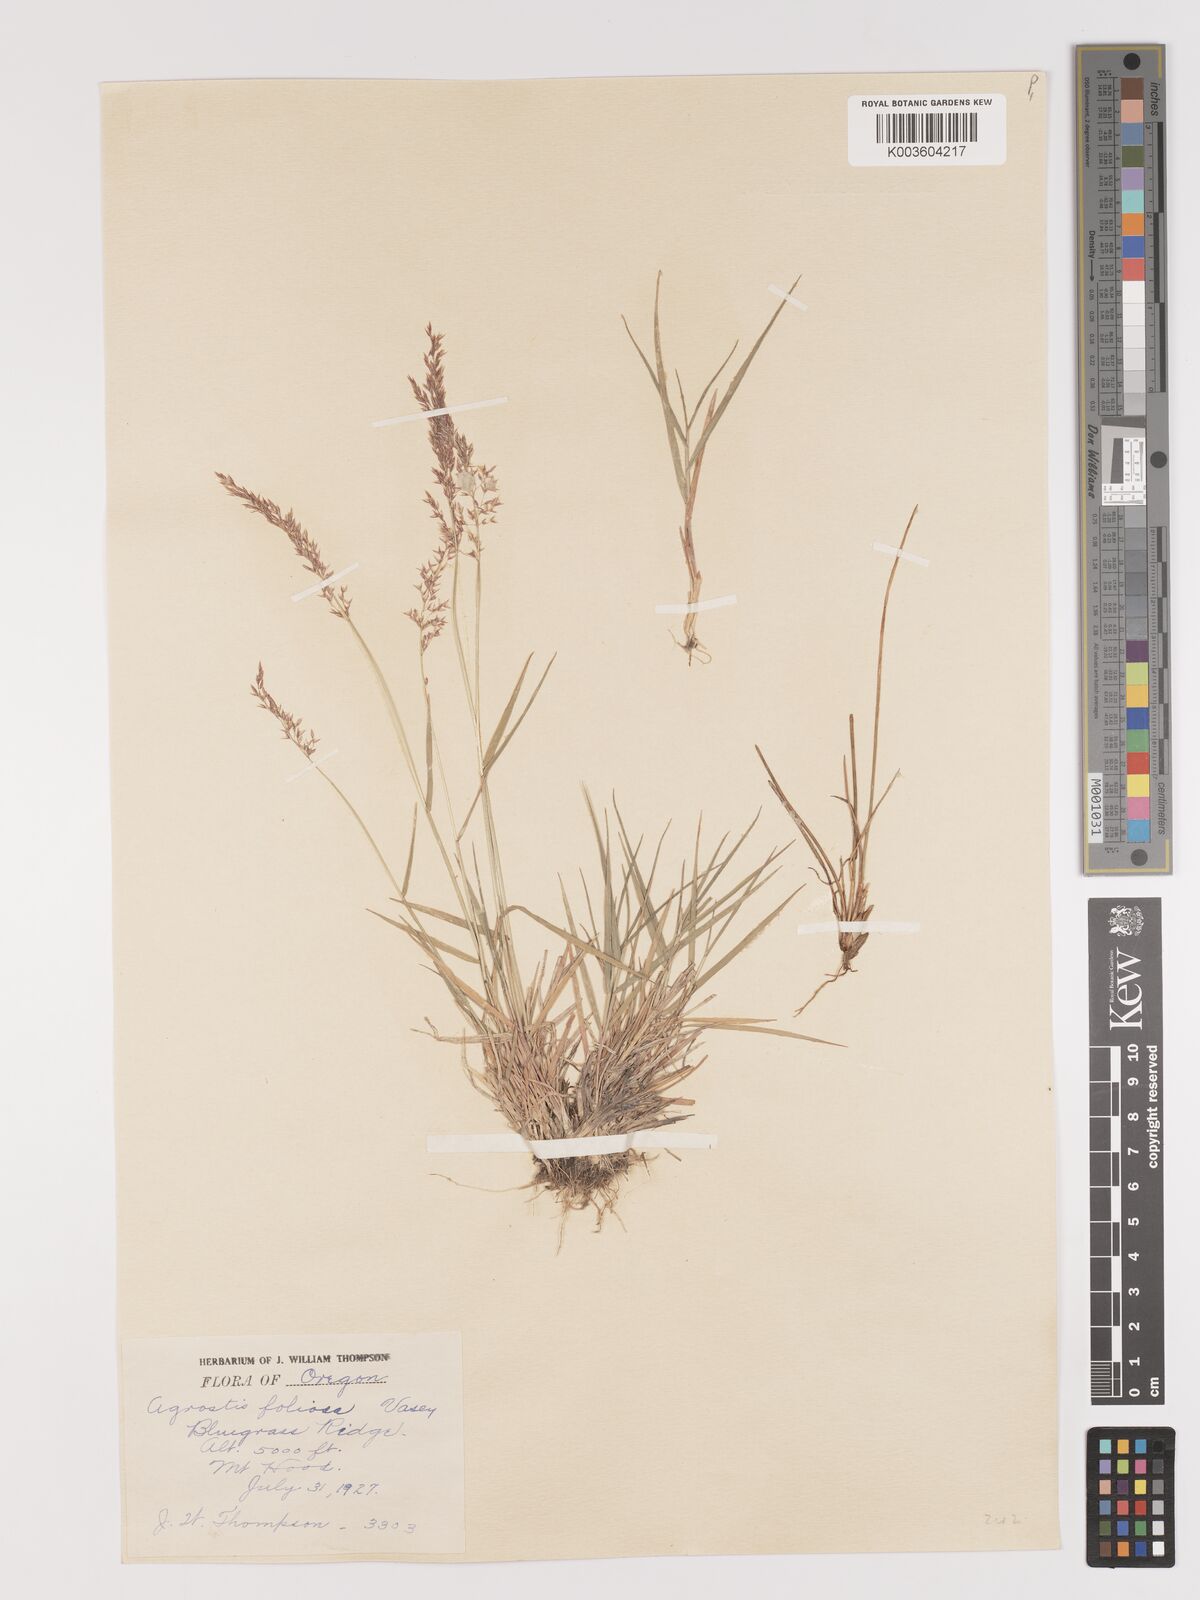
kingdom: Plantae
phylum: Tracheophyta
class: Liliopsida
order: Poales
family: Poaceae
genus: Agrostis
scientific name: Agrostis pallens
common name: Dune bent
